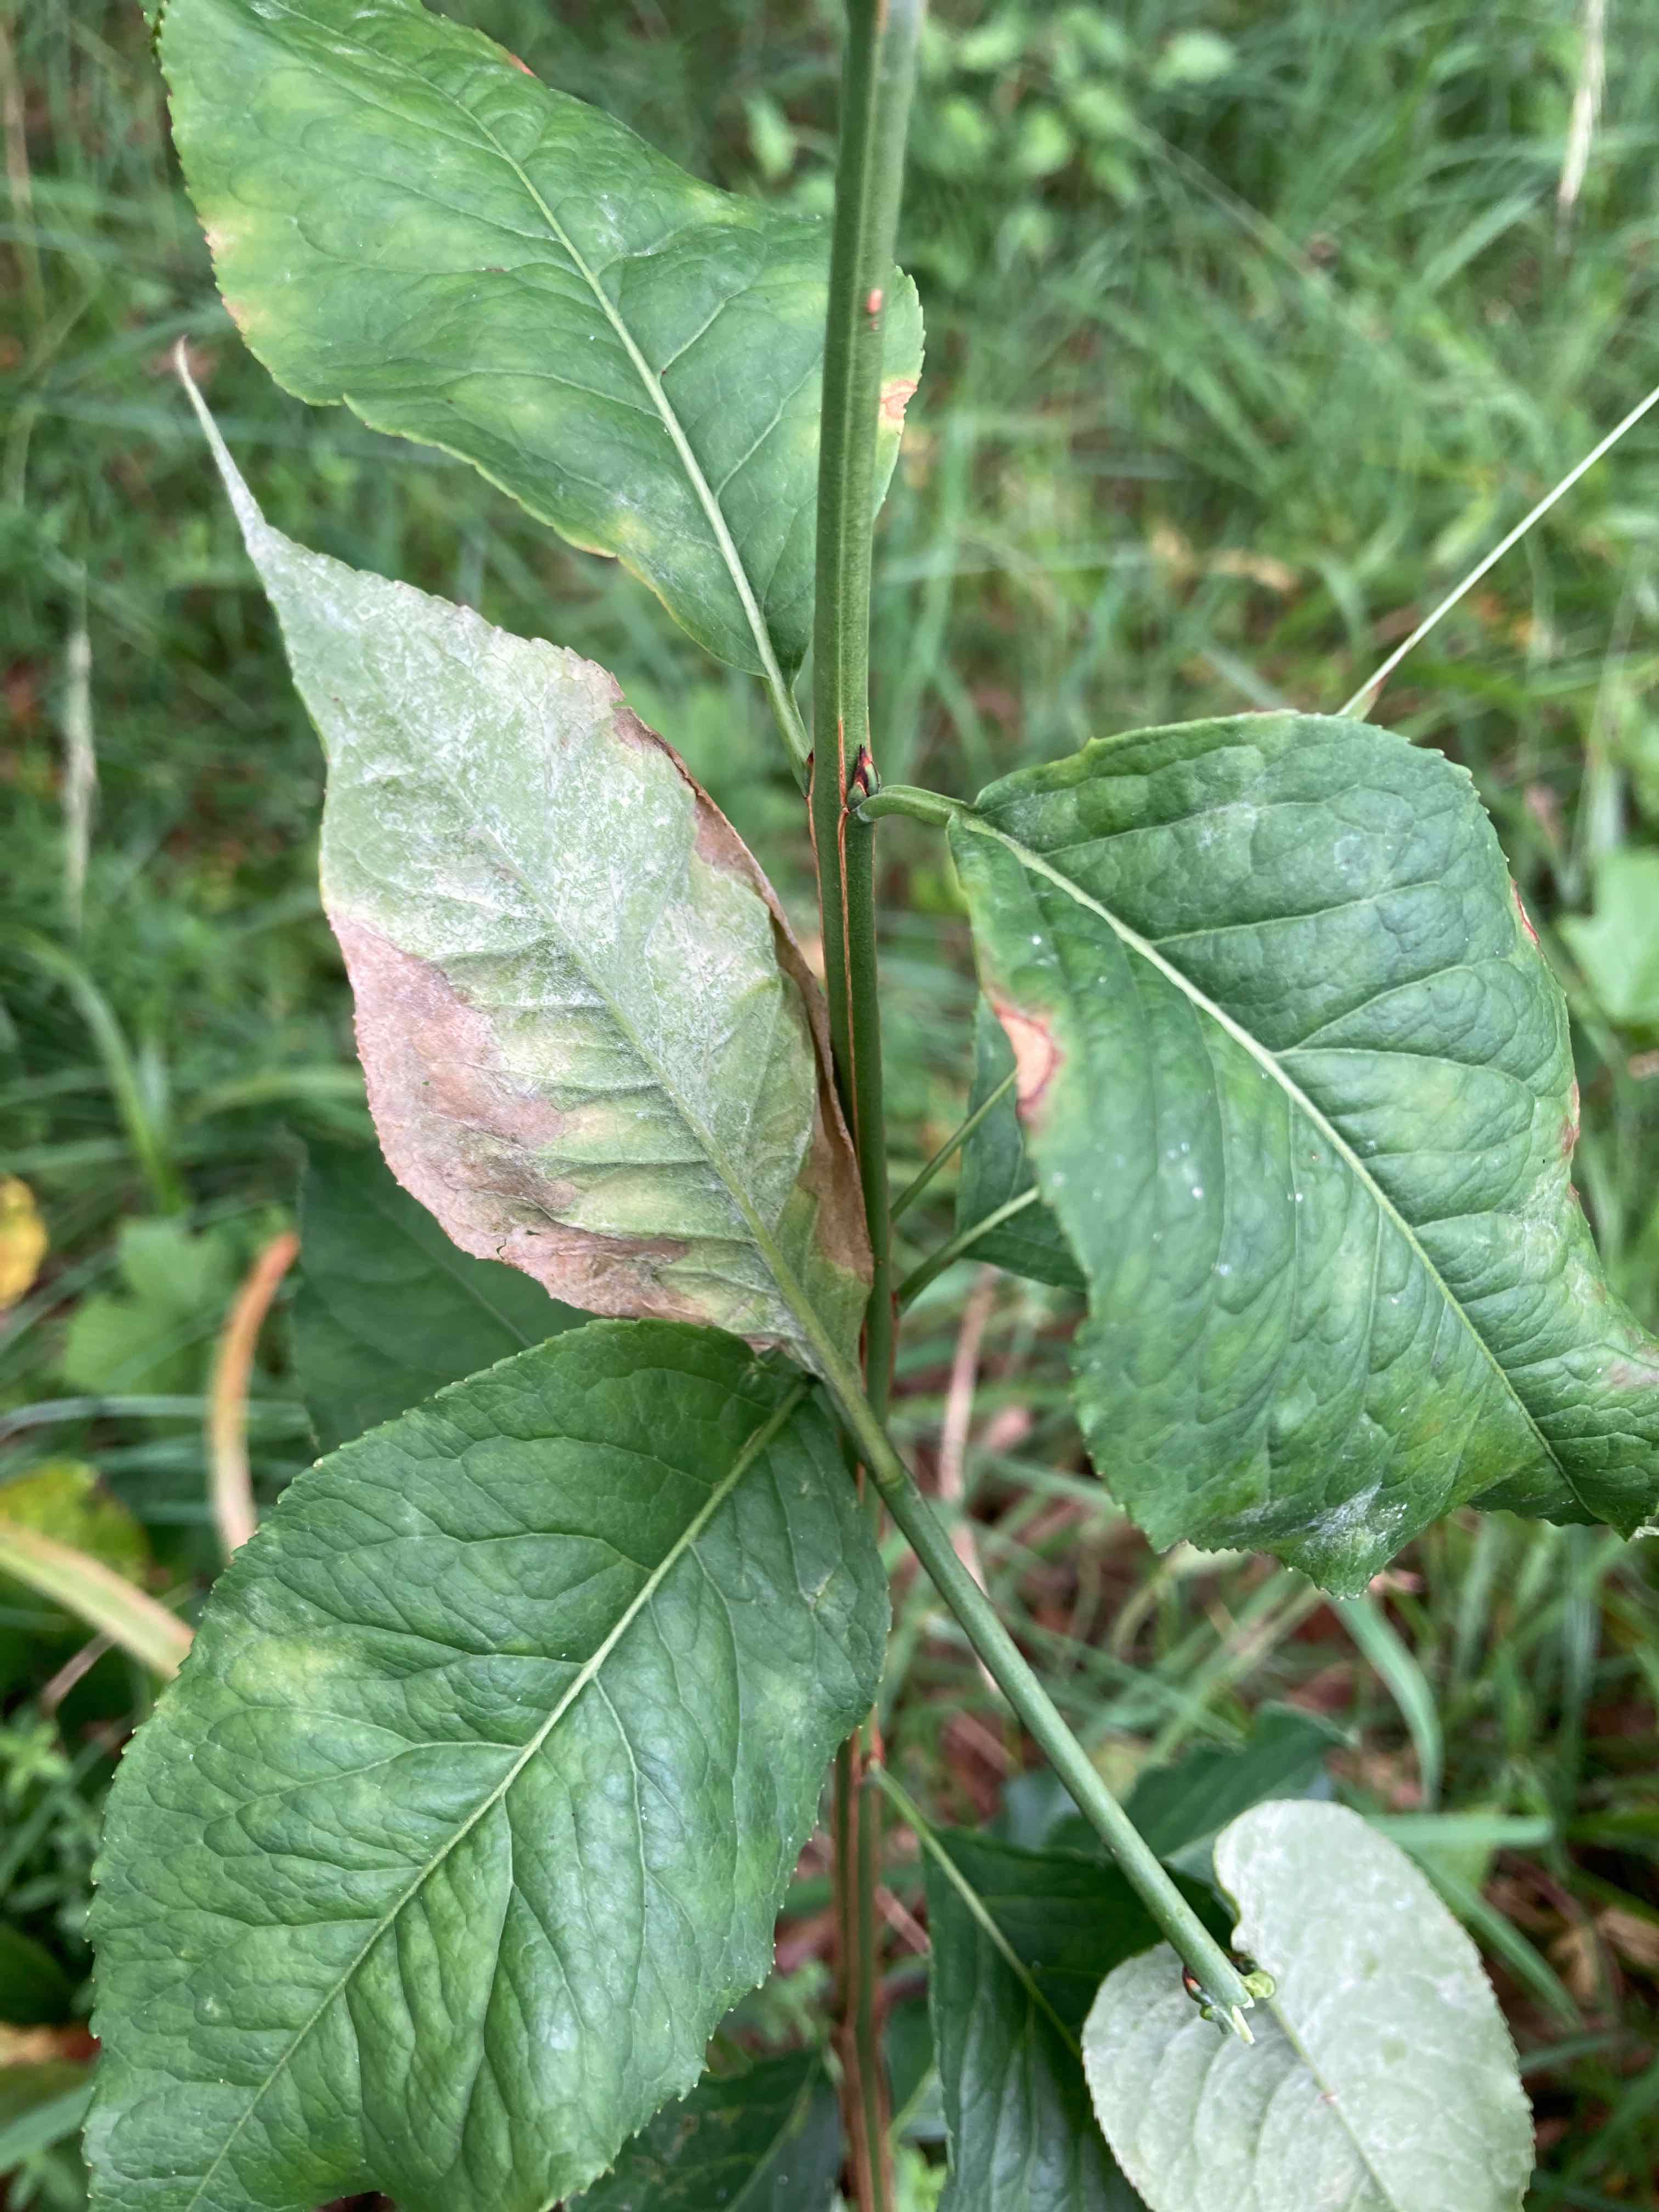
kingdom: Fungi
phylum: Ascomycota
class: Leotiomycetes
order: Helotiales
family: Erysiphaceae
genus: Erysiphe
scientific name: Erysiphe euonymi
